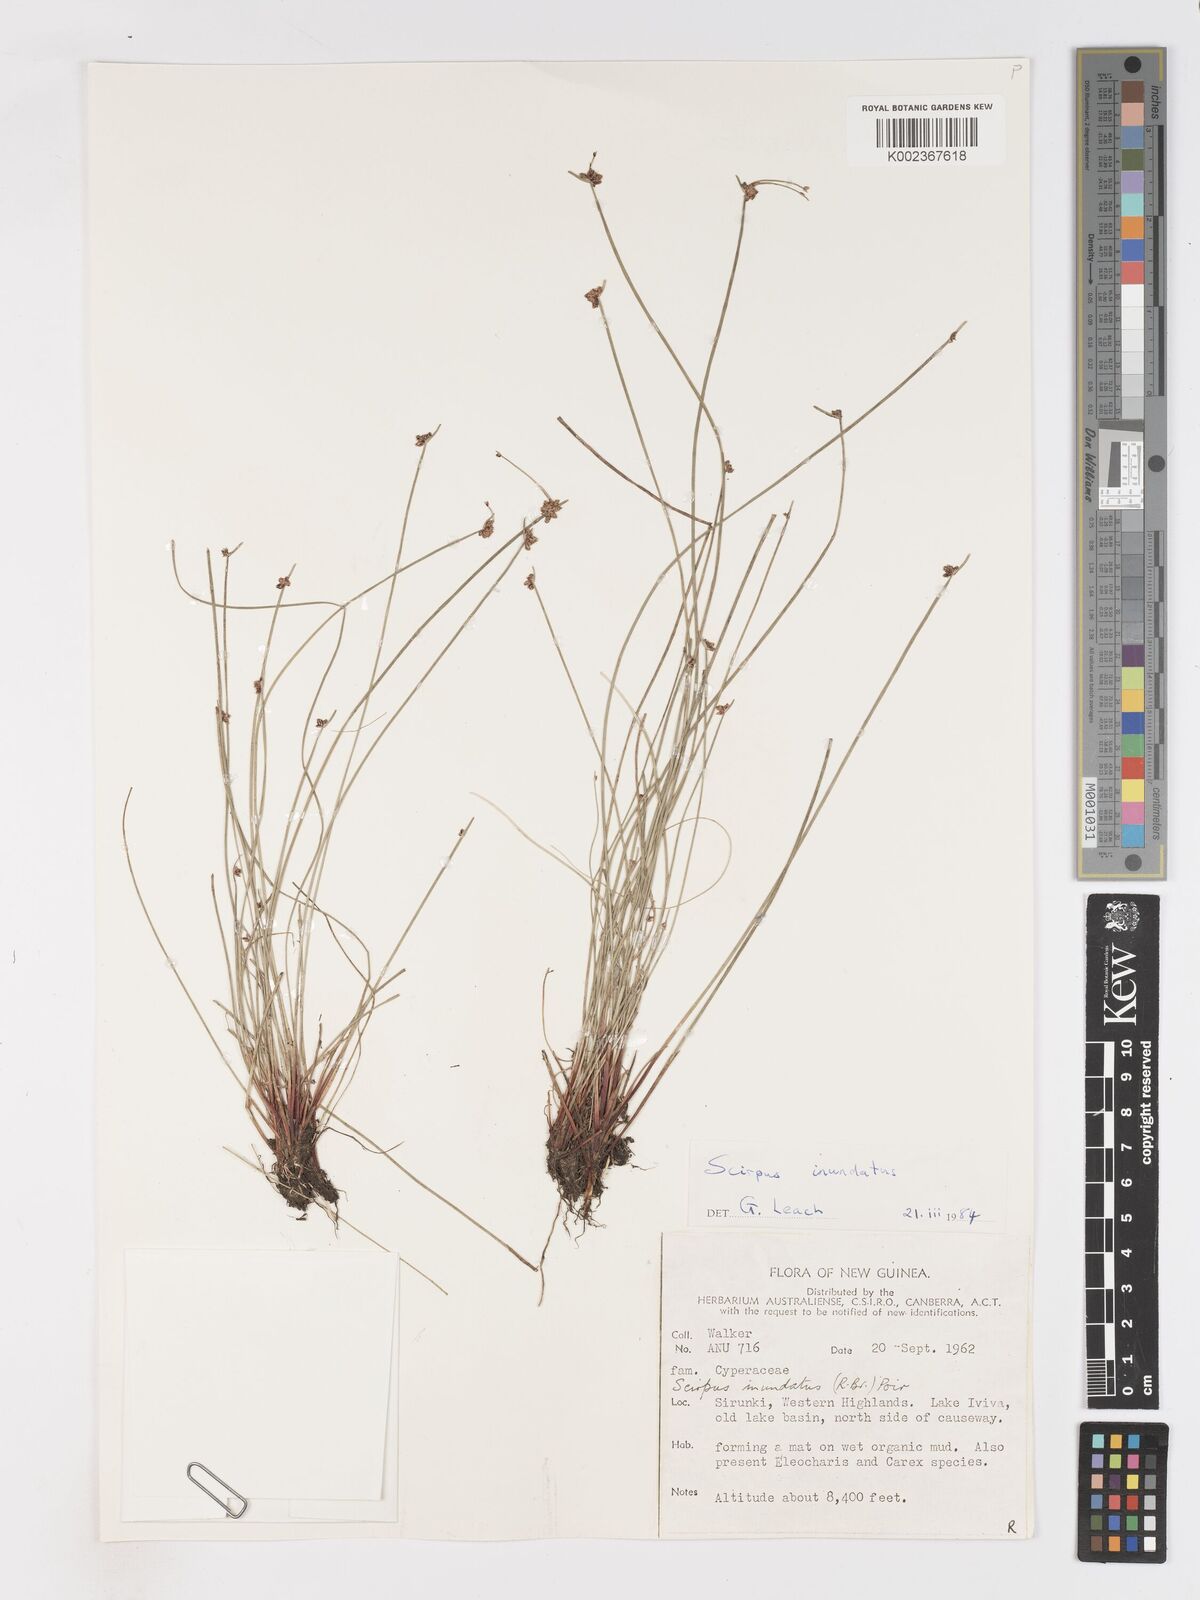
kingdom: Plantae
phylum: Tracheophyta
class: Liliopsida
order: Poales
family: Cyperaceae
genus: Isolepis
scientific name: Isolepis inundata
